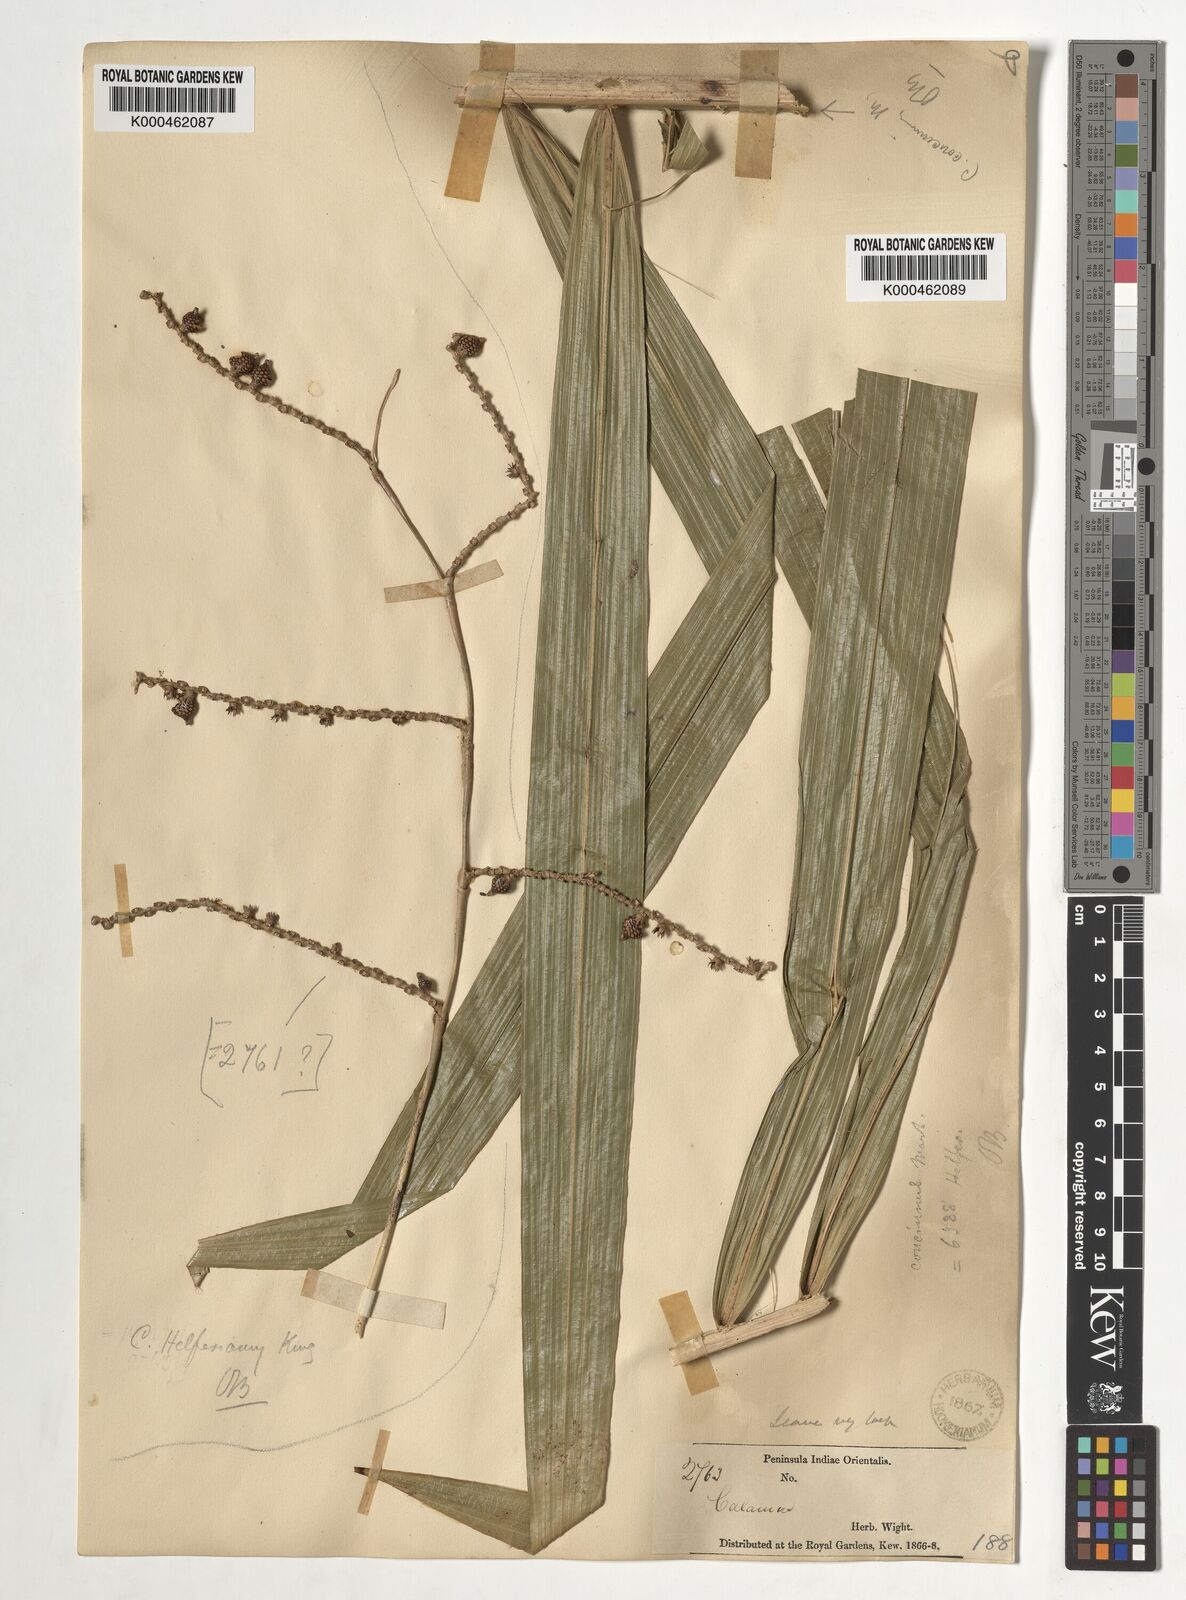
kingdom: Plantae
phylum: Tracheophyta
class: Liliopsida
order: Arecales
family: Arecaceae
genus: Calamus
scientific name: Calamus helferianus
